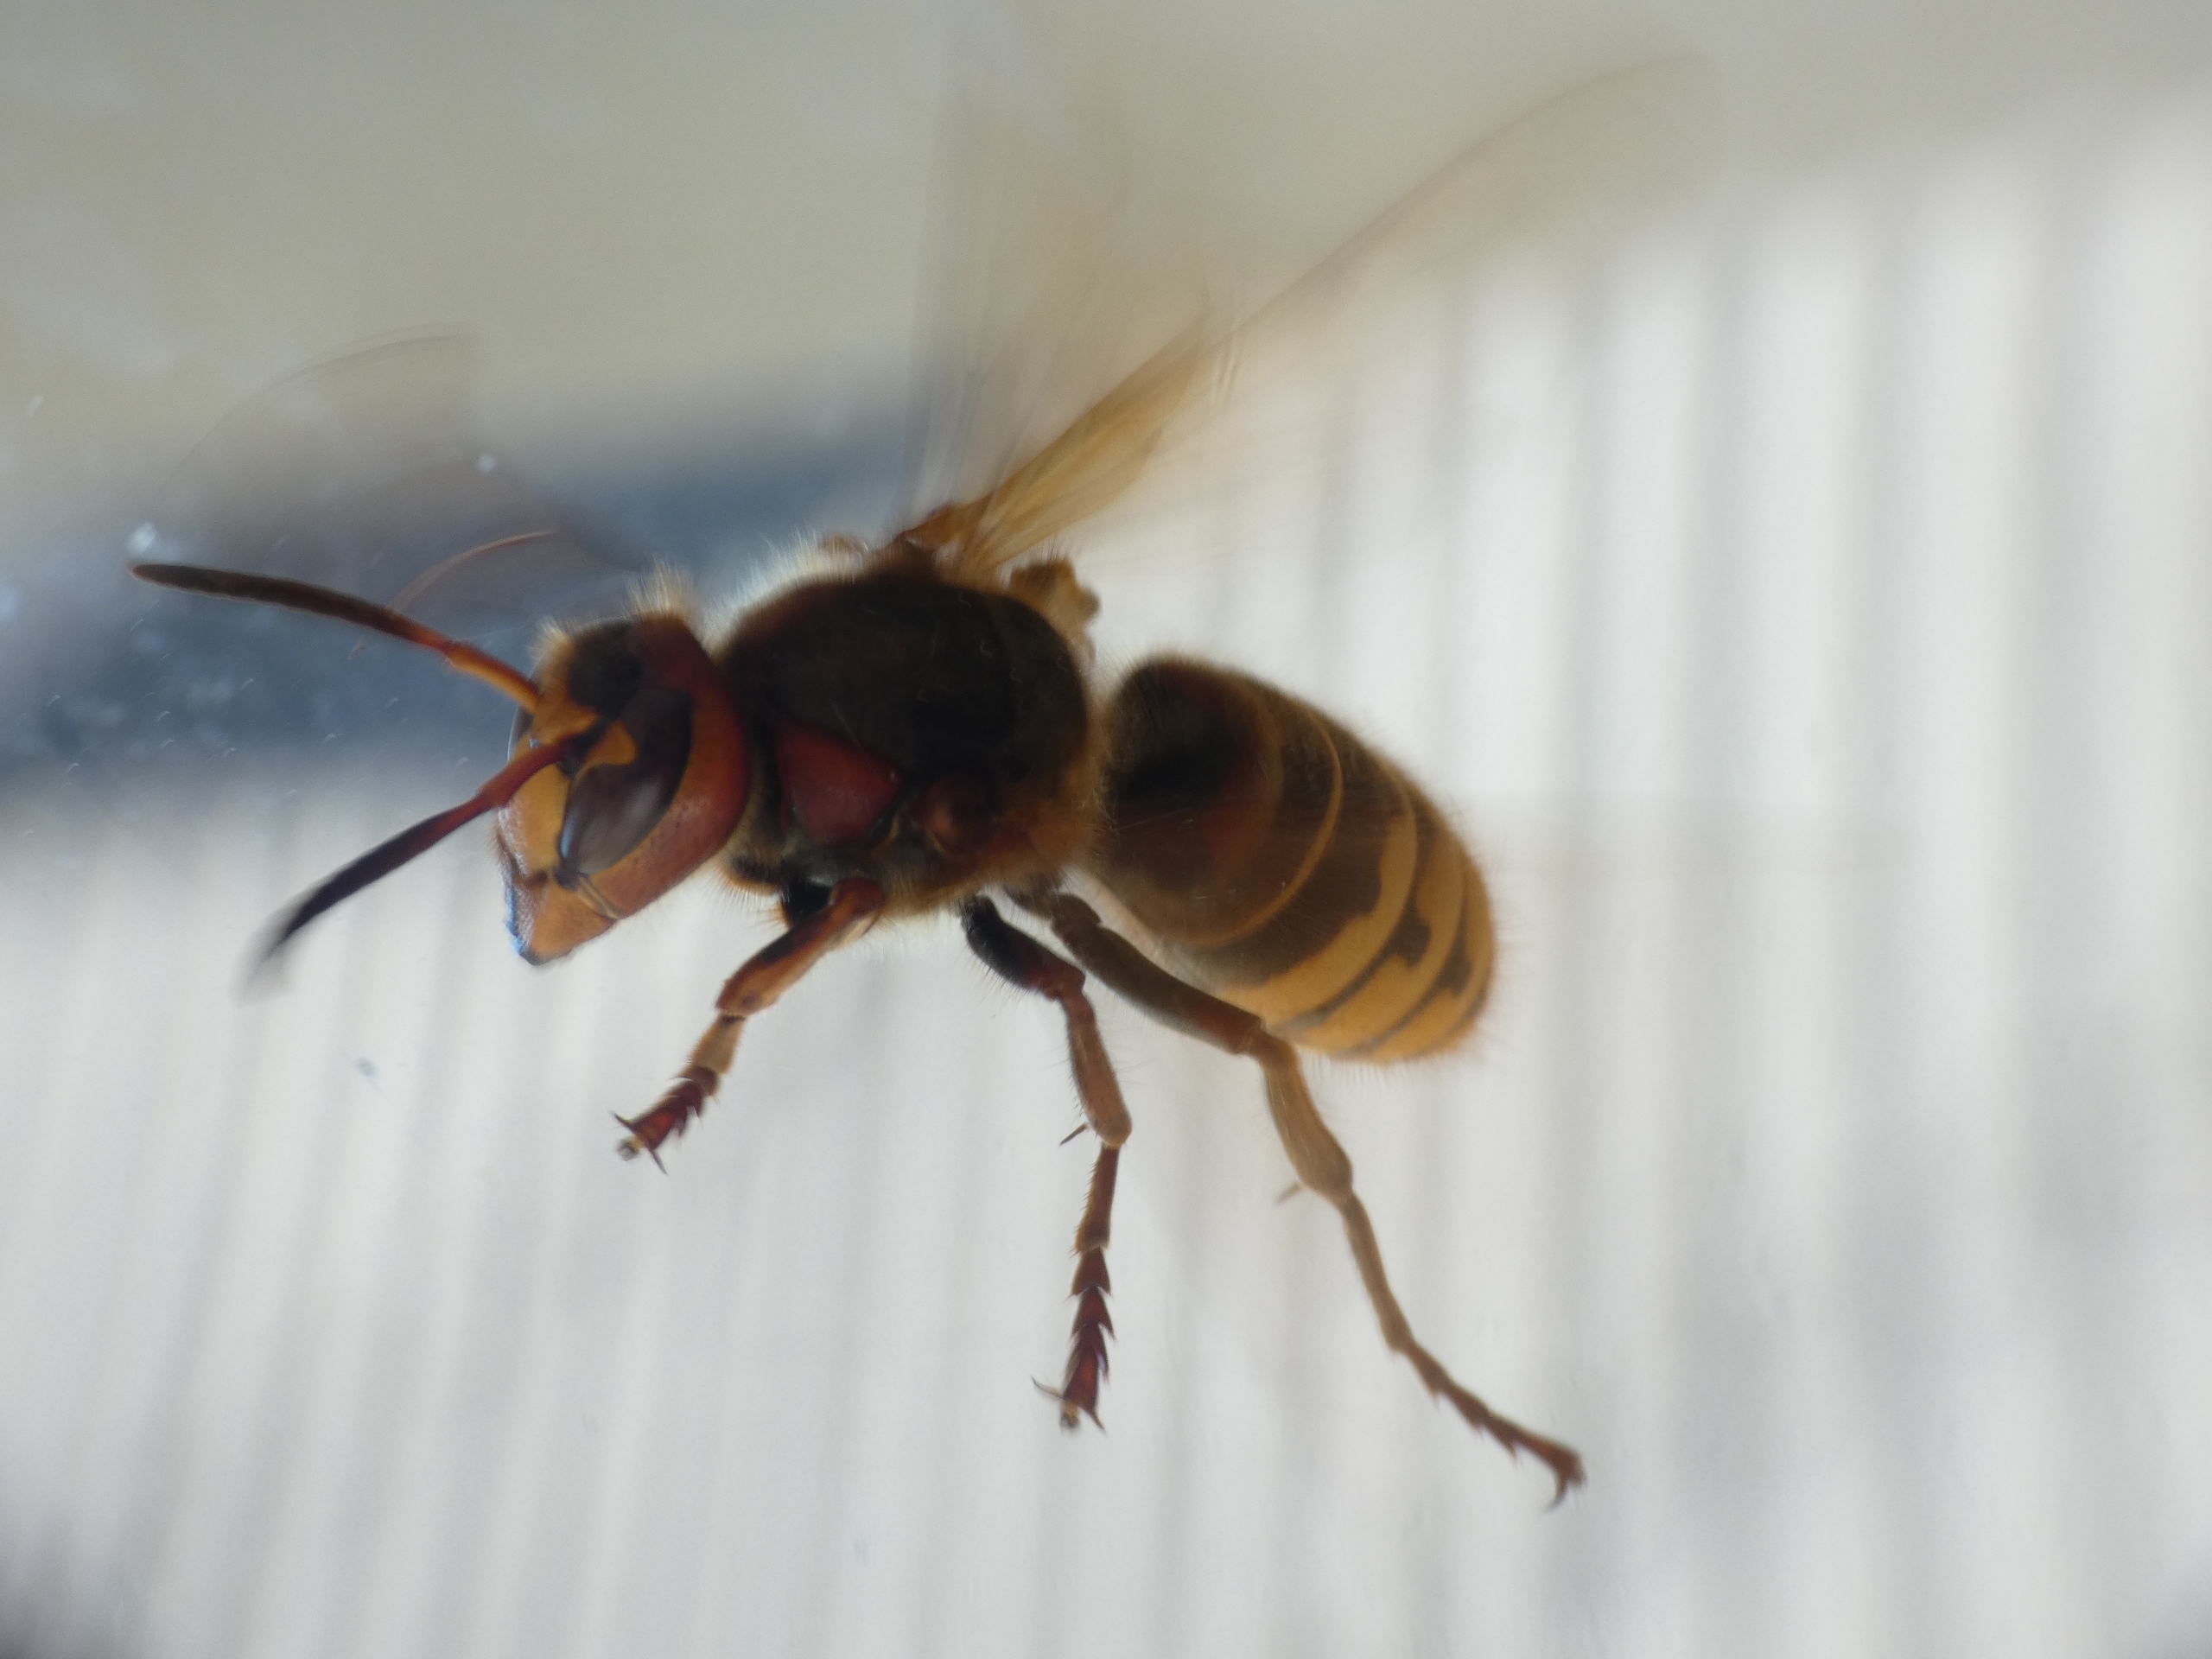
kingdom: Animalia
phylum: Arthropoda
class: Insecta
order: Hymenoptera
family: Vespidae
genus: Vespa
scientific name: Vespa crabro
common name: Stor gedehams
